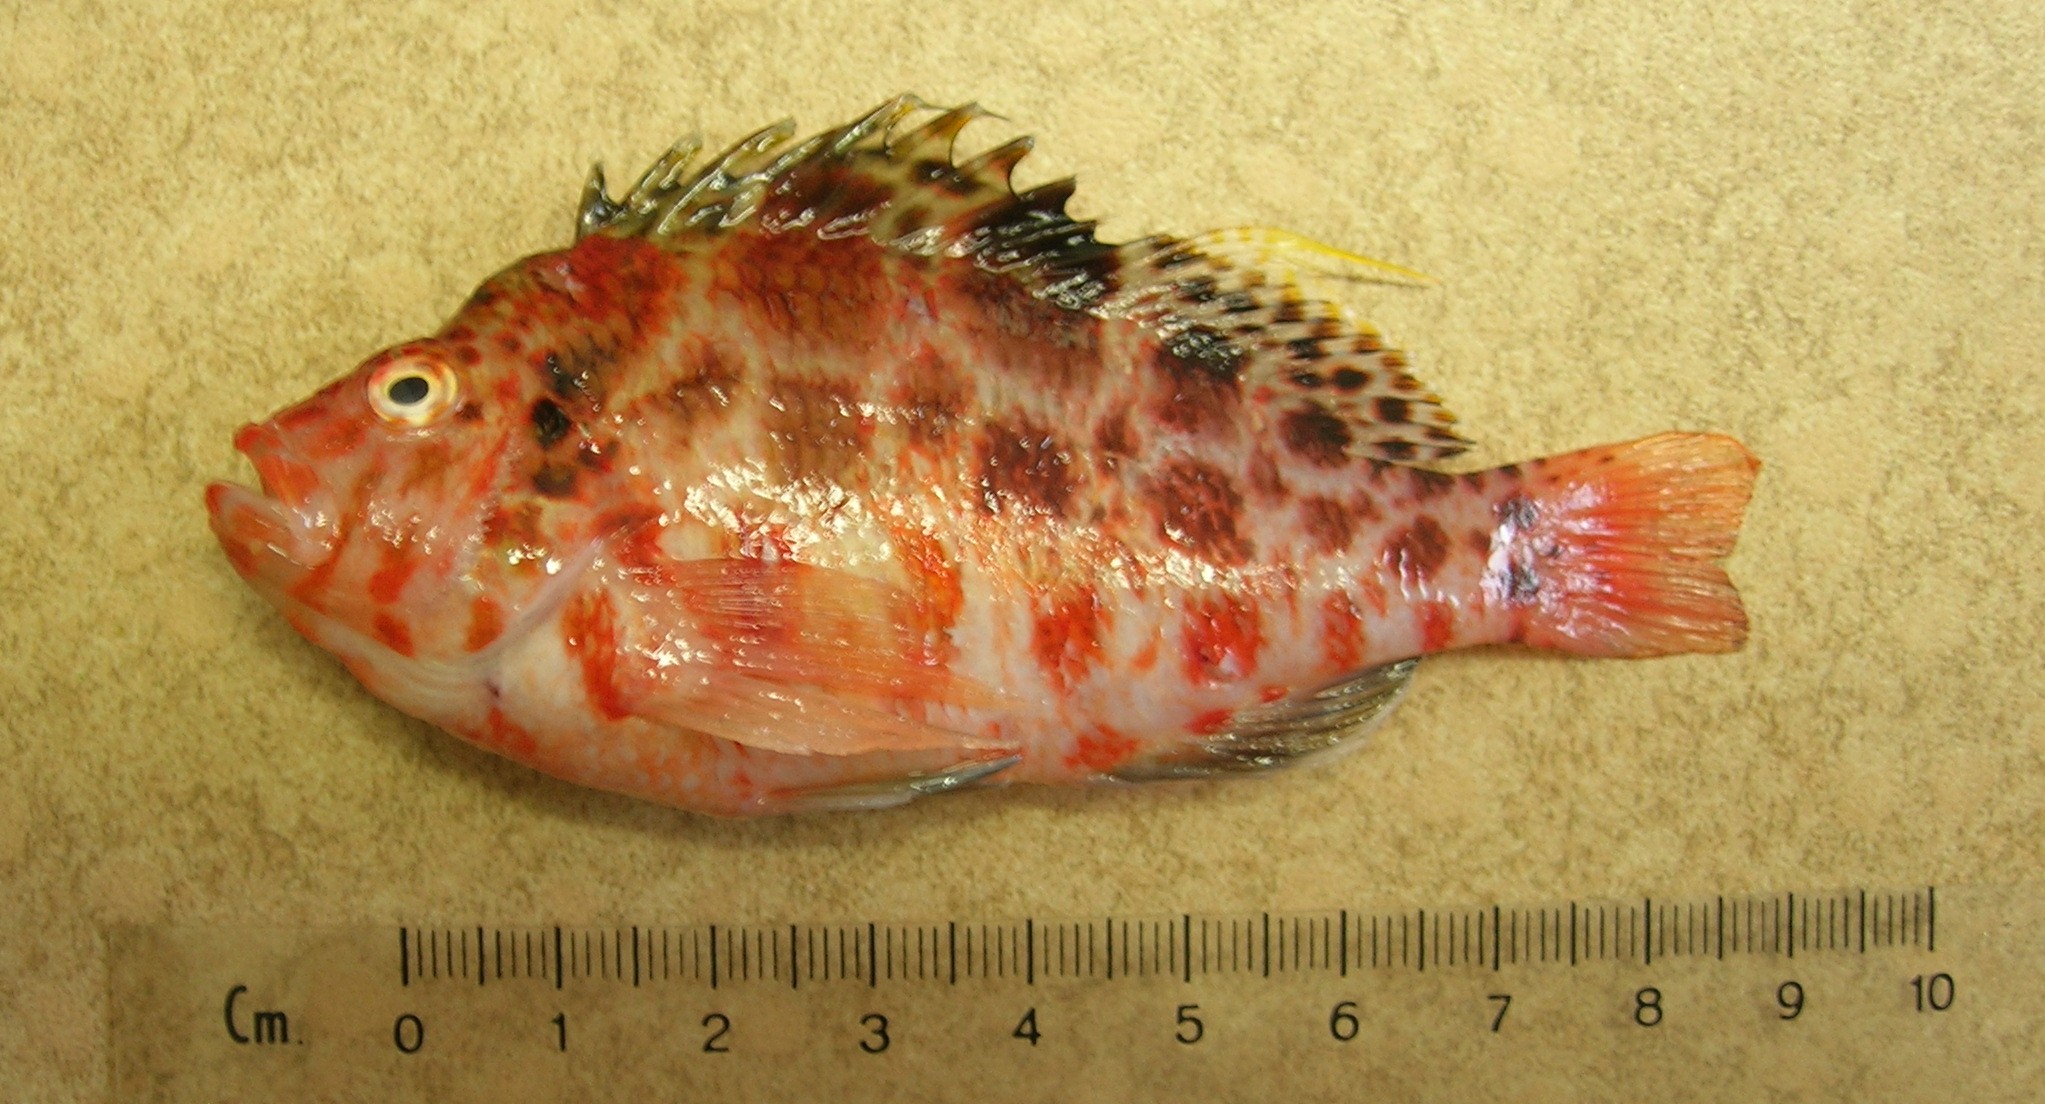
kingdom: Animalia
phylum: Chordata
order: Perciformes
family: Cirrhitidae
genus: Cirrhitichthys
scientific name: Cirrhitichthys aprinus
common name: Blotched hawkfish
